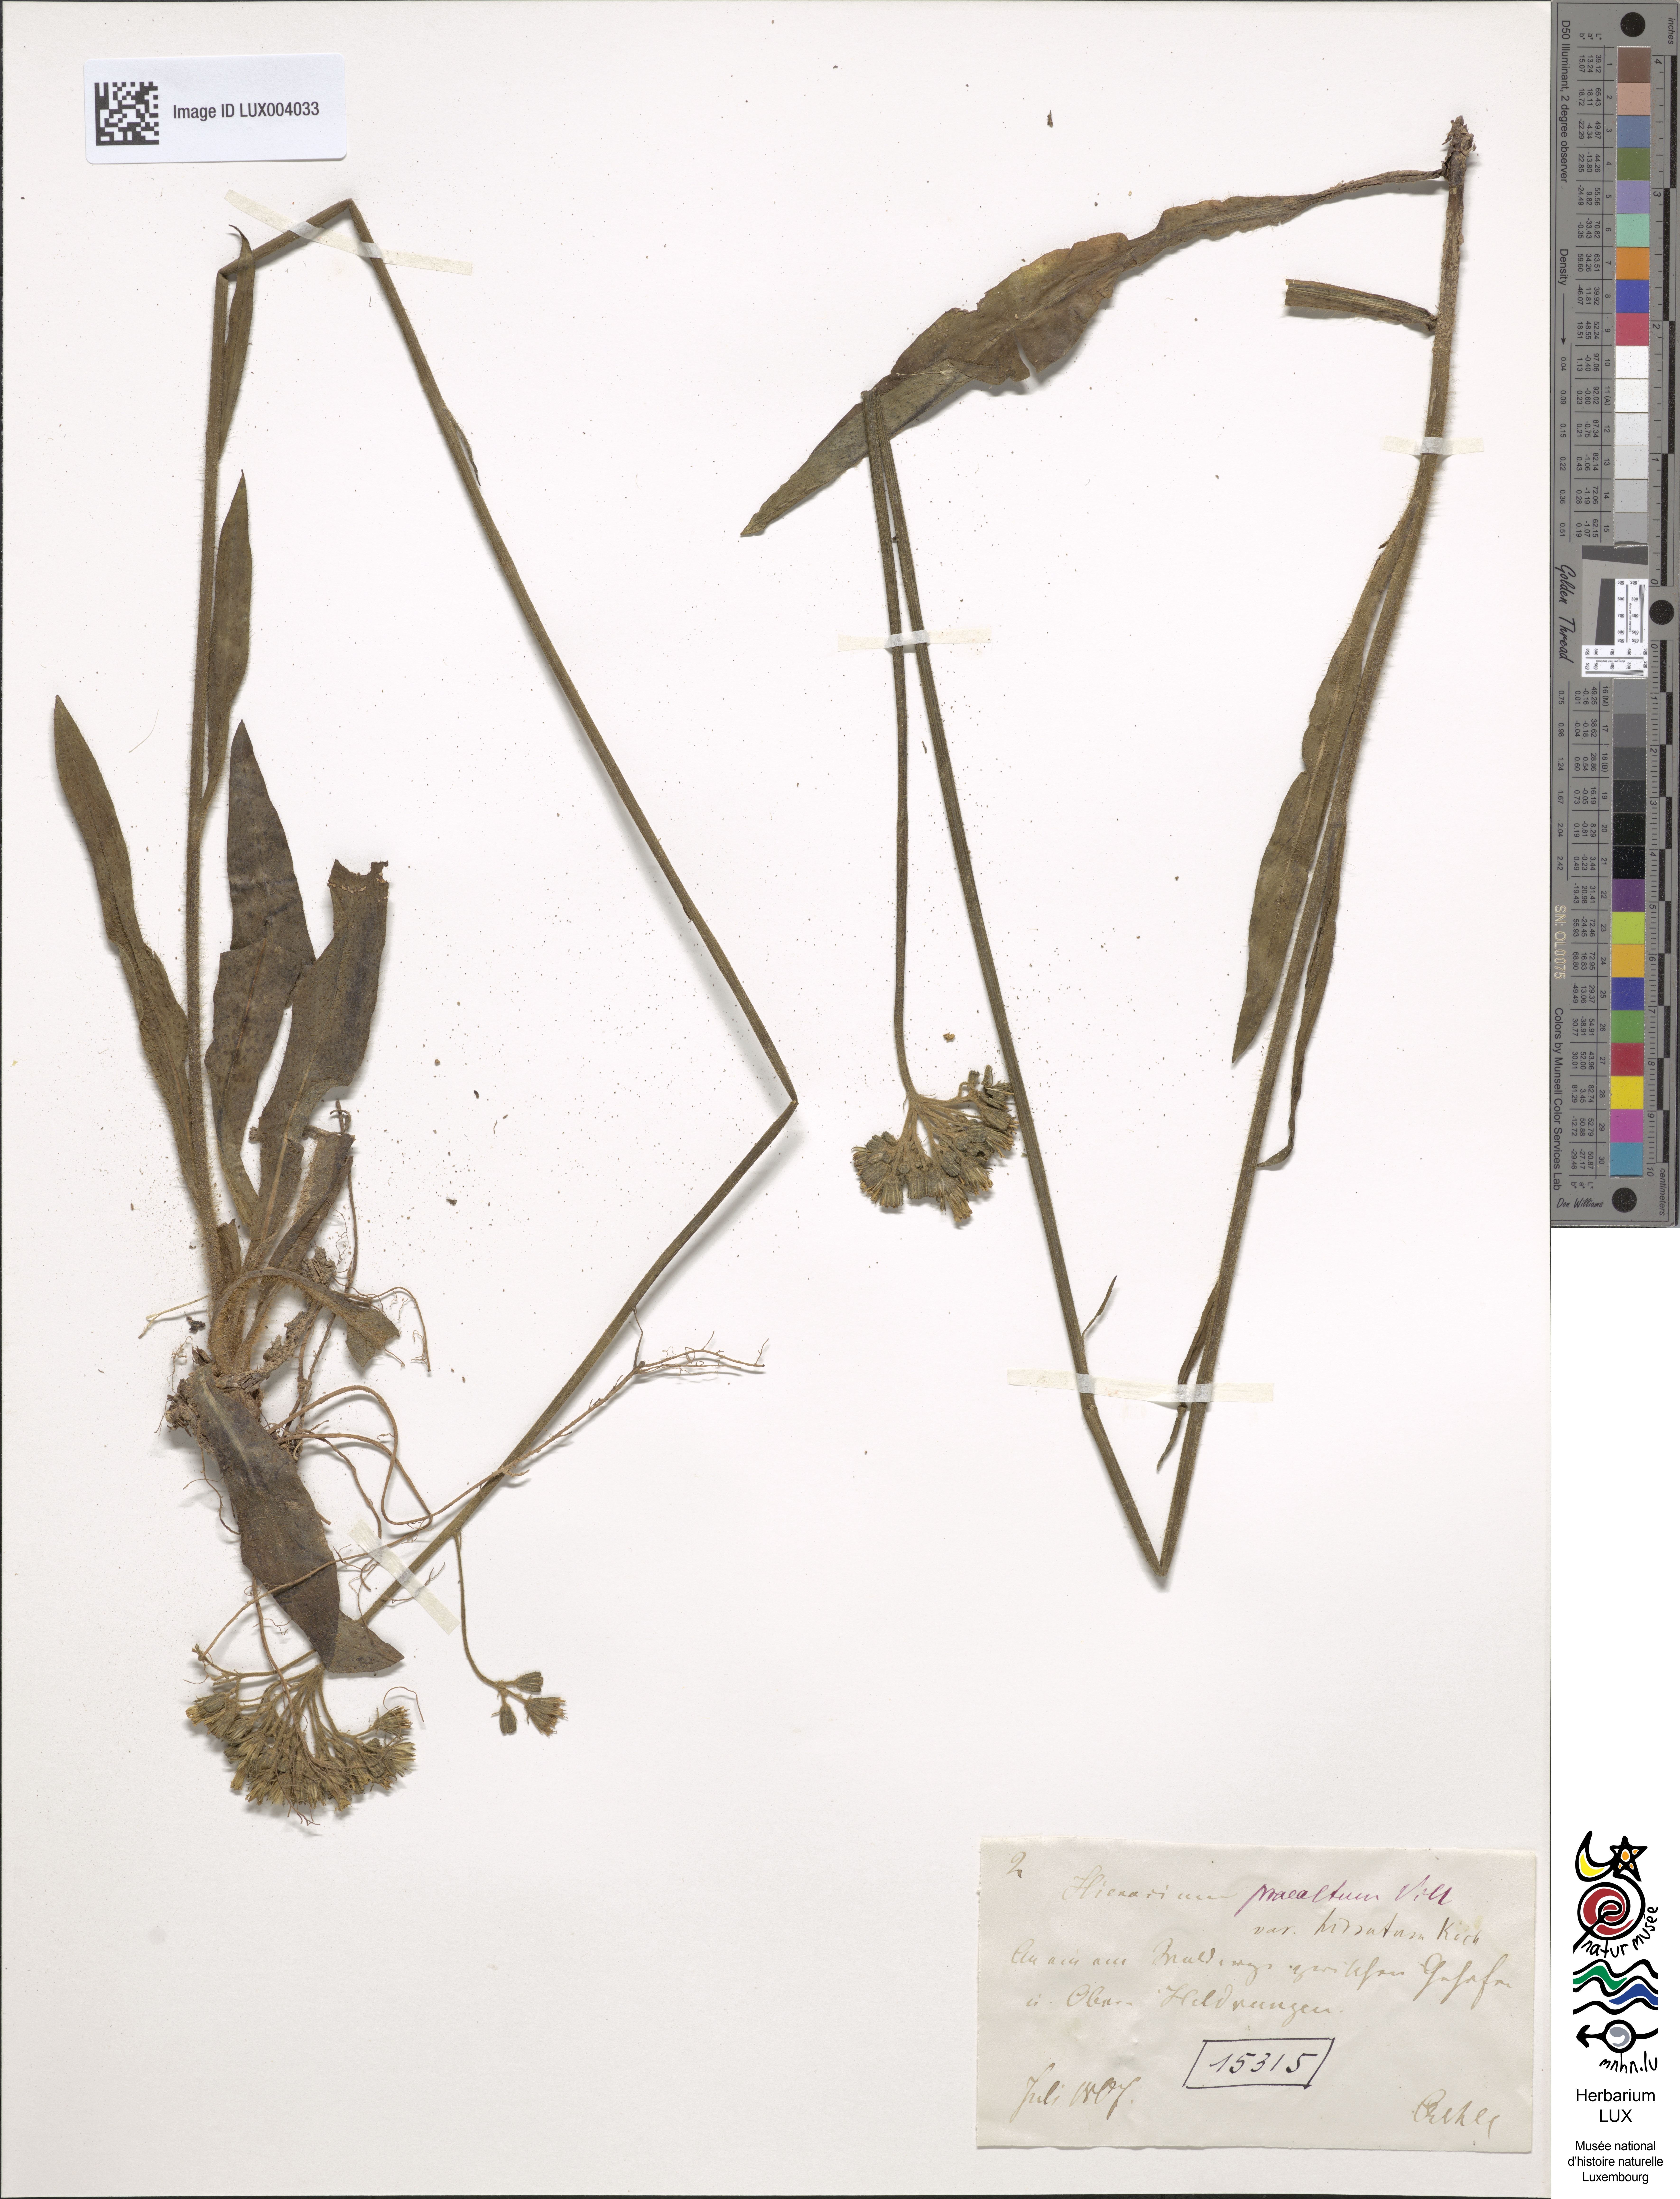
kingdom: Plantae
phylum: Tracheophyta
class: Magnoliopsida
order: Asterales
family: Asteraceae
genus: Hieracium
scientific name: Hieracium piloselloides
